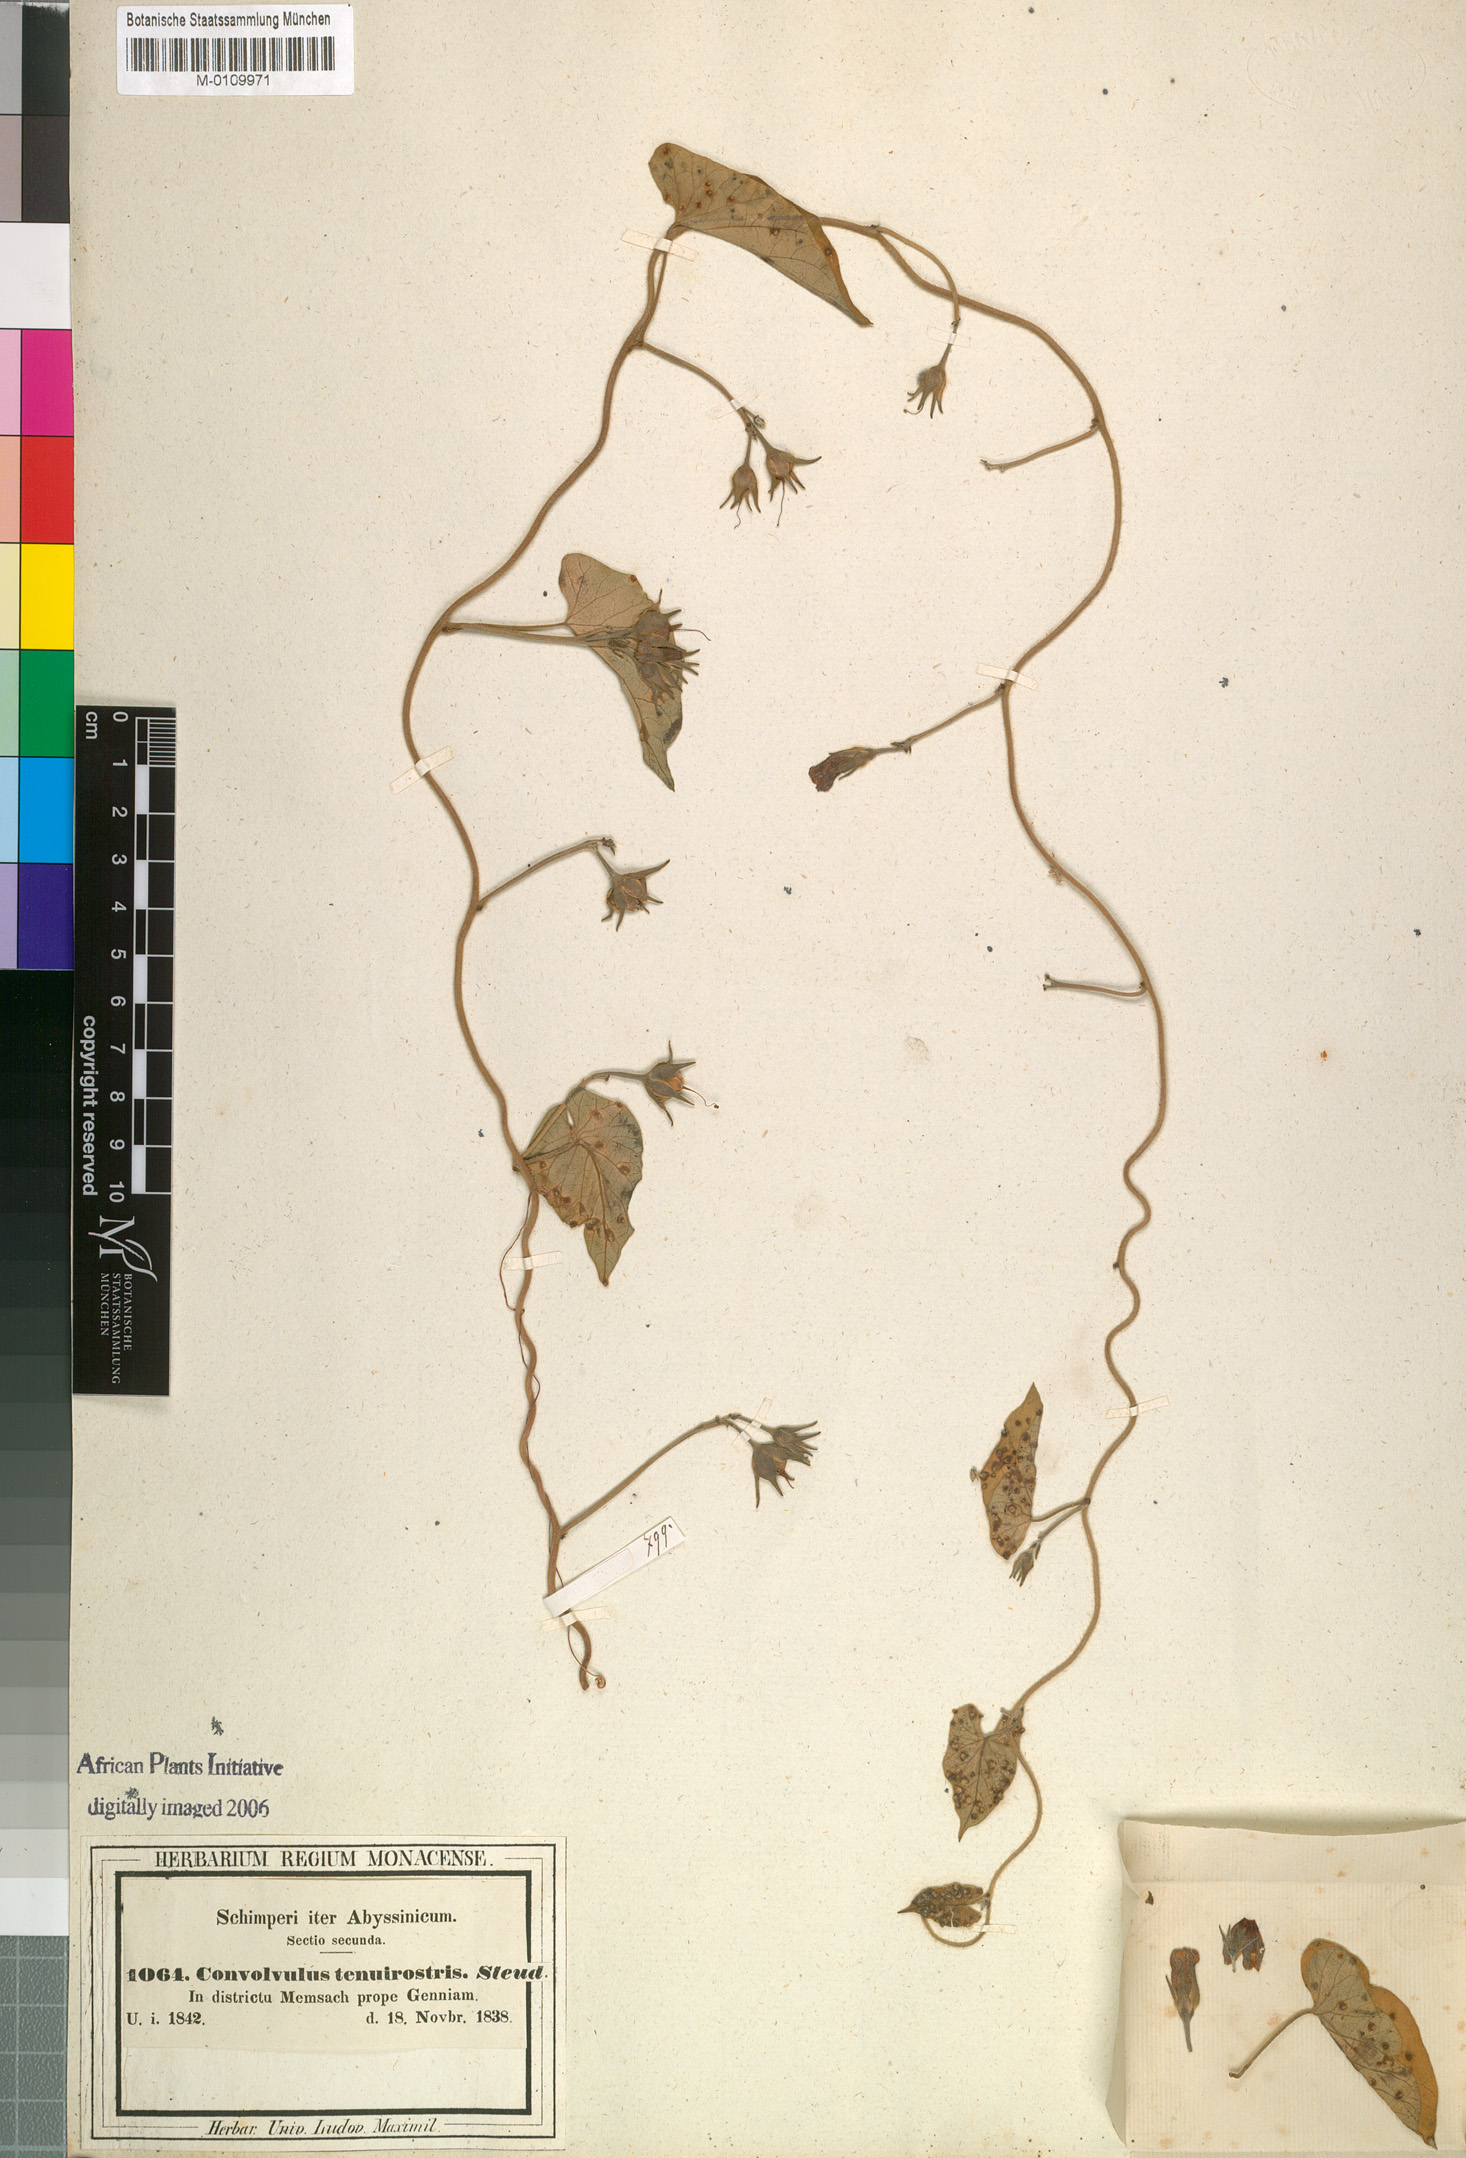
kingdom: Plantae
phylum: Tracheophyta
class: Magnoliopsida
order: Solanales
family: Convolvulaceae
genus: Ipomoea
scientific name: Ipomoea tenuirostris
